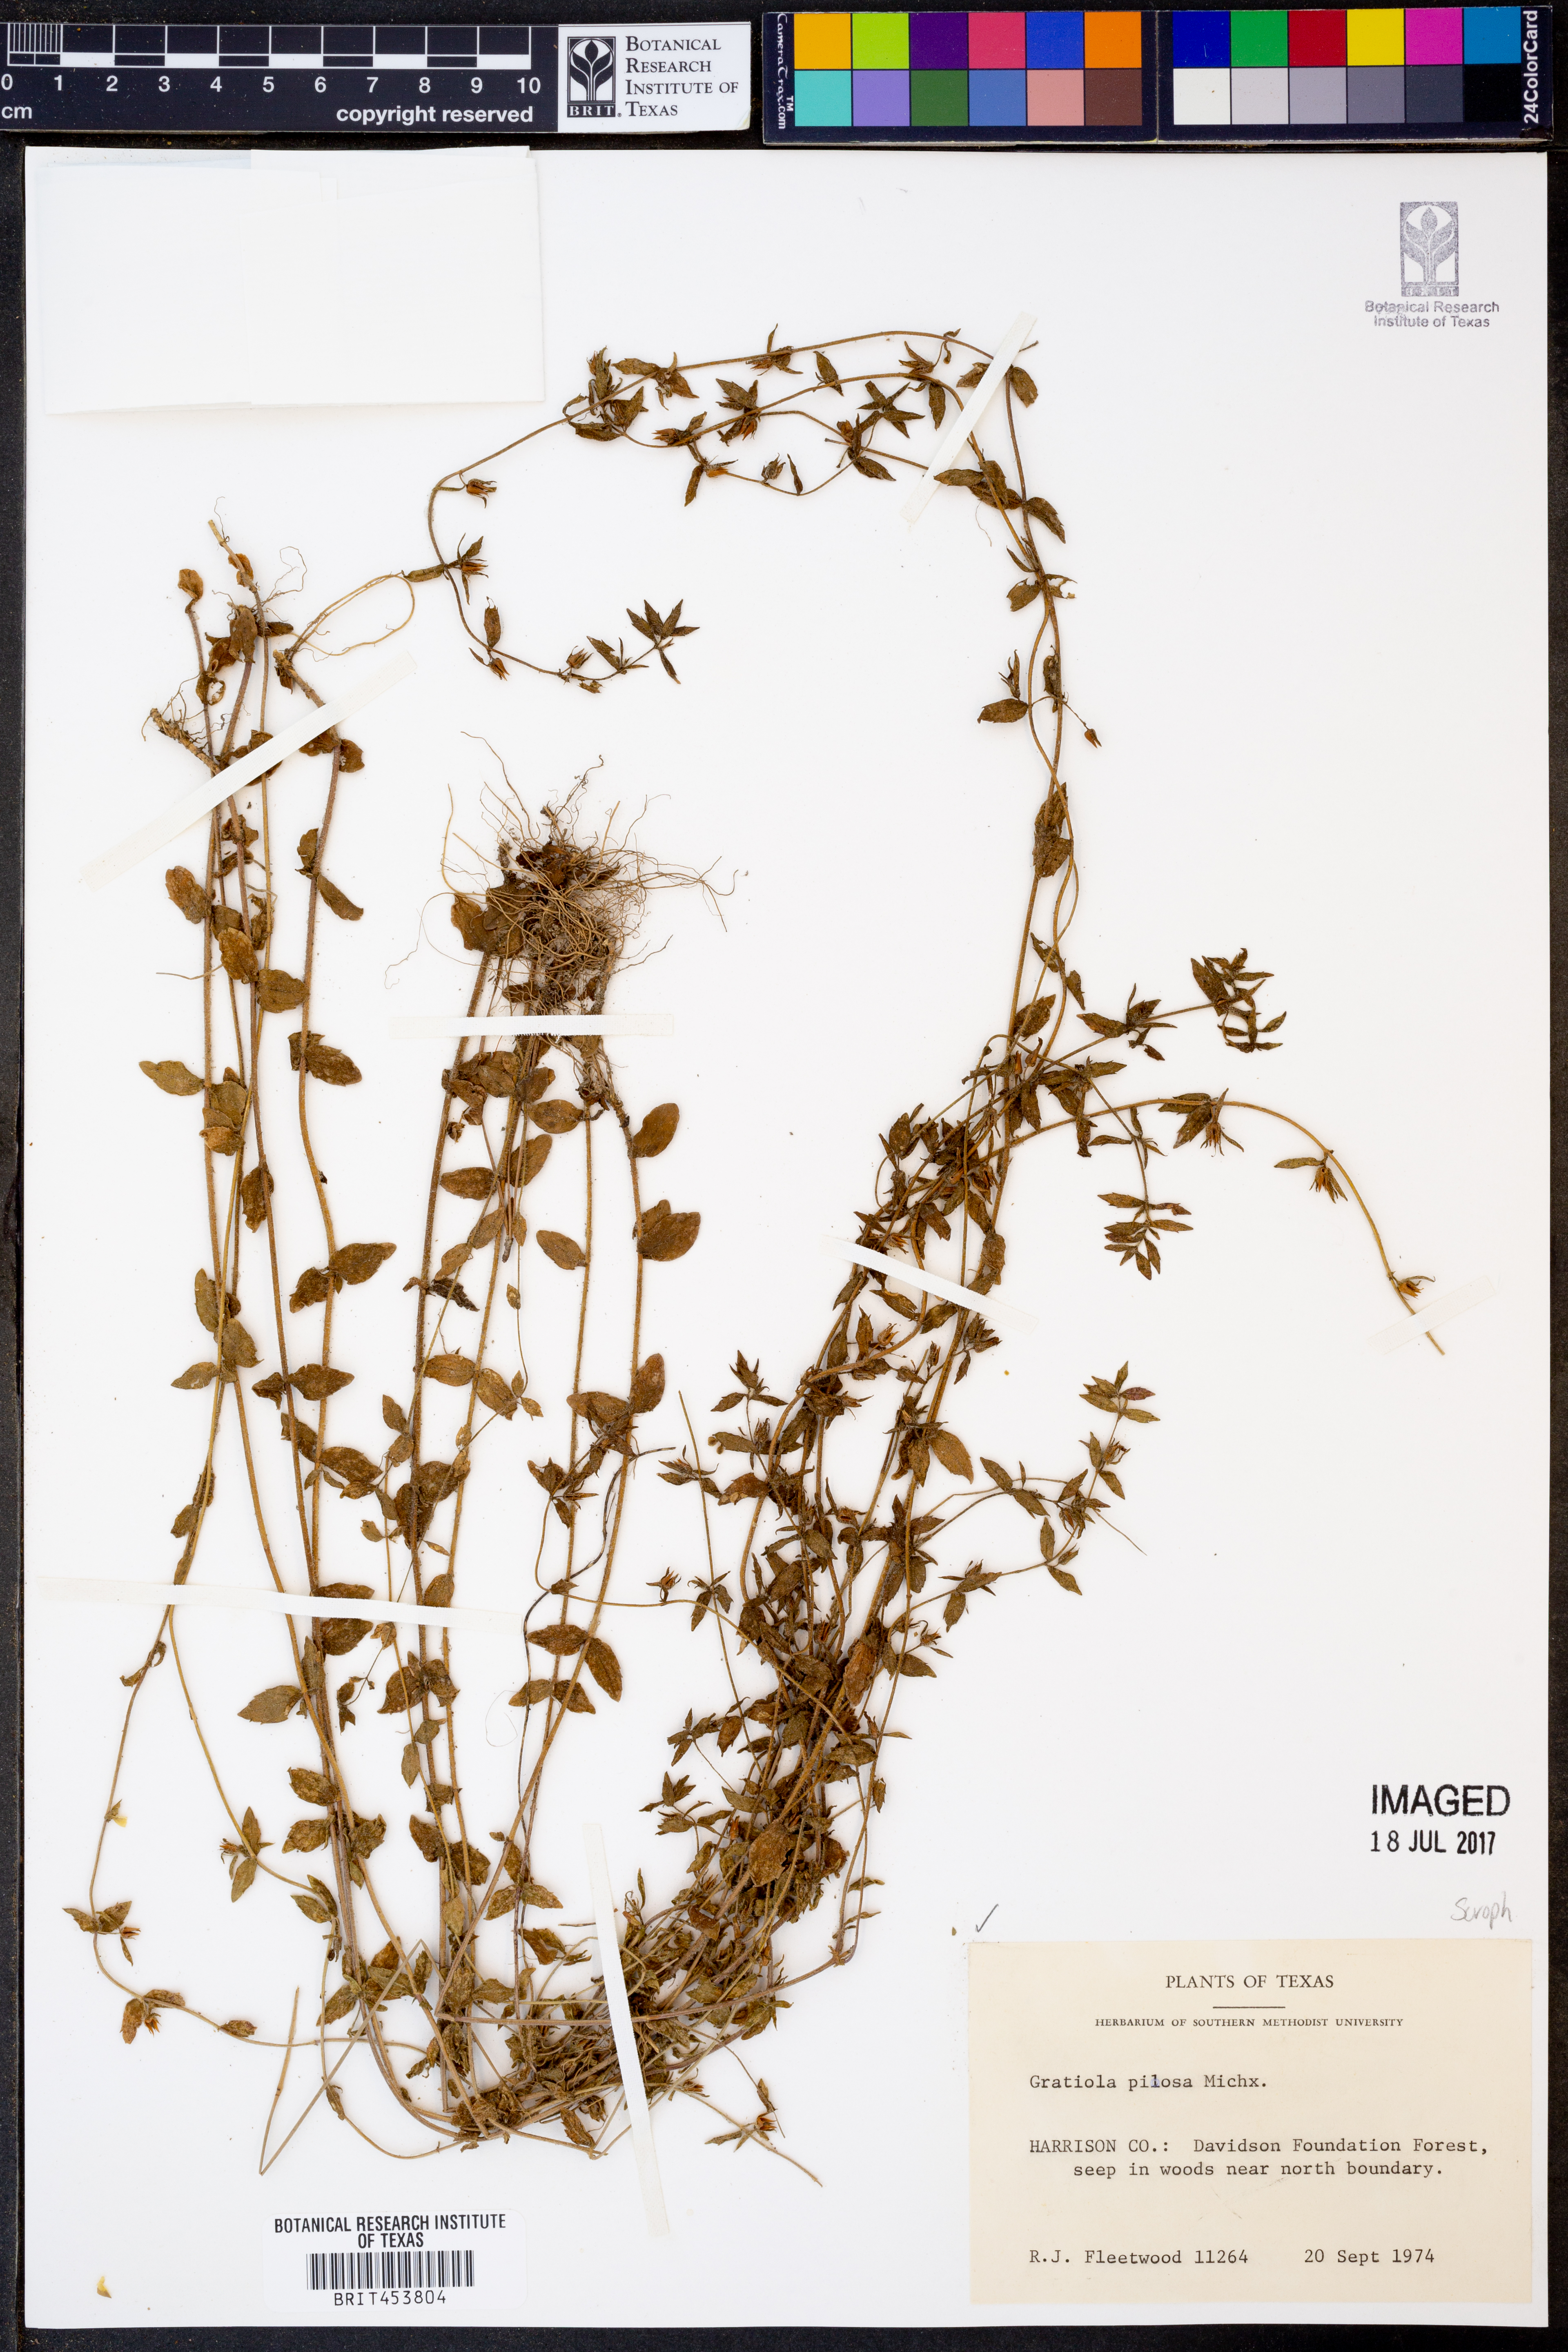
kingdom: Plantae
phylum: Tracheophyta
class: Magnoliopsida
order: Lamiales
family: Plantaginaceae
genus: Gratiola
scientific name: Gratiola pilosa
